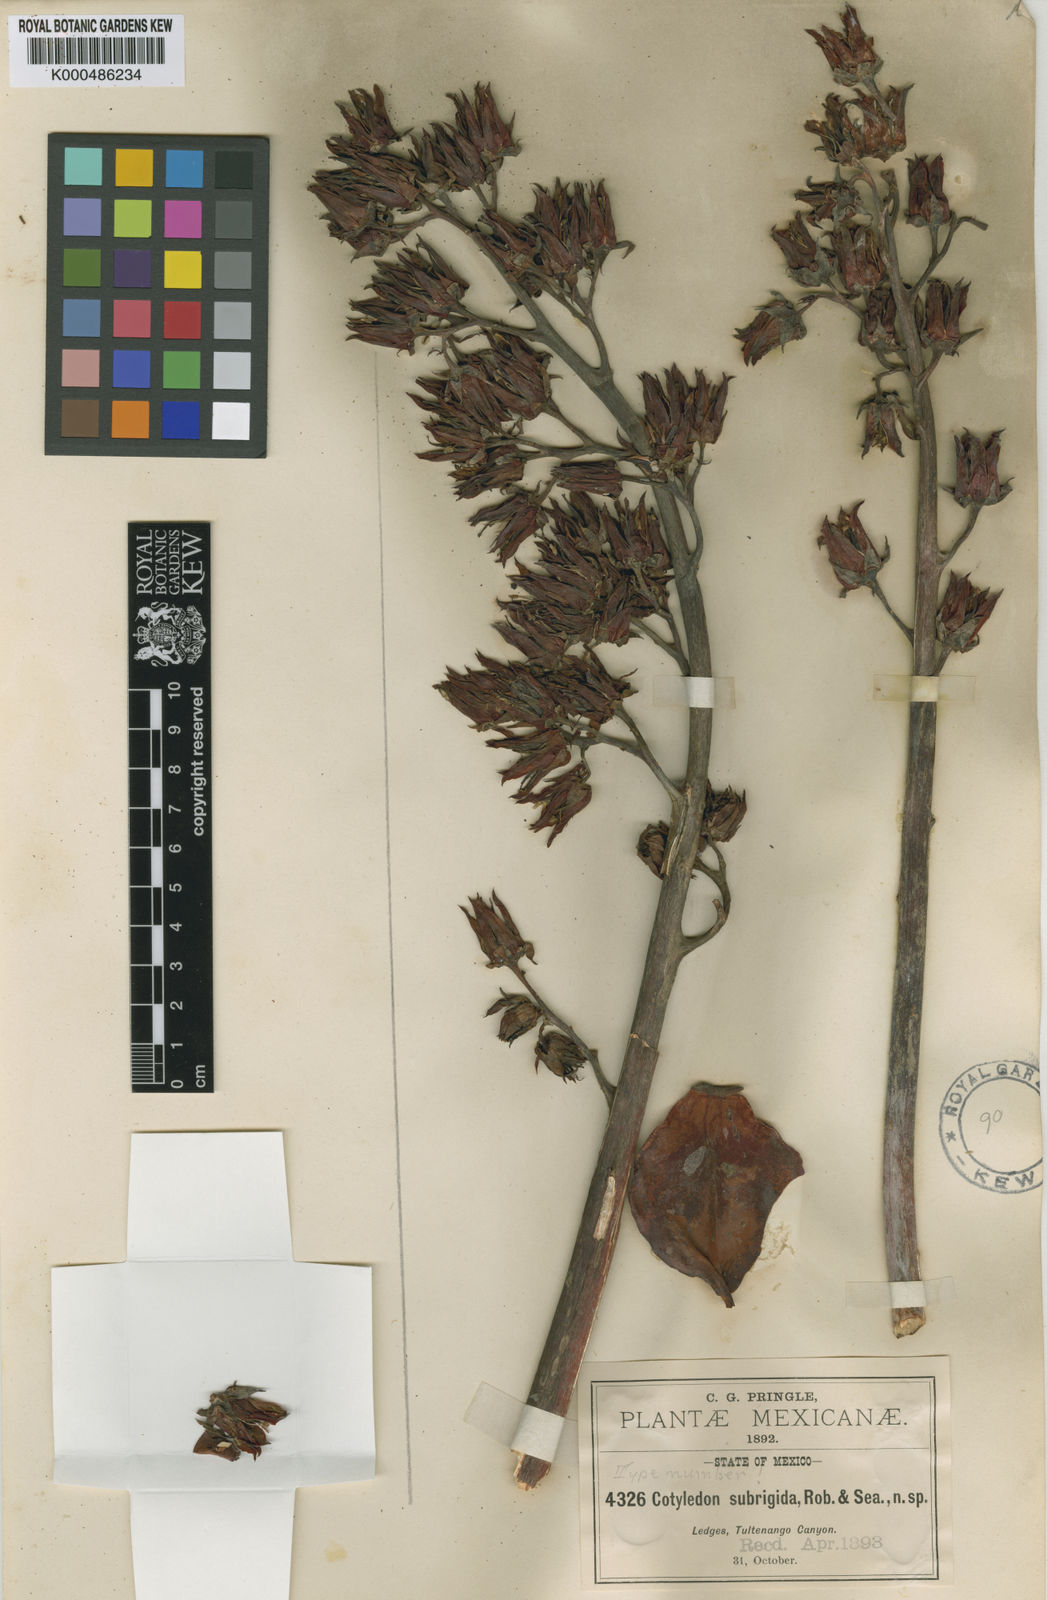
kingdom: Plantae
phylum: Tracheophyta
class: Magnoliopsida
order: Saxifragales
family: Crassulaceae
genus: Echeveria
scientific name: Echeveria subrigida
